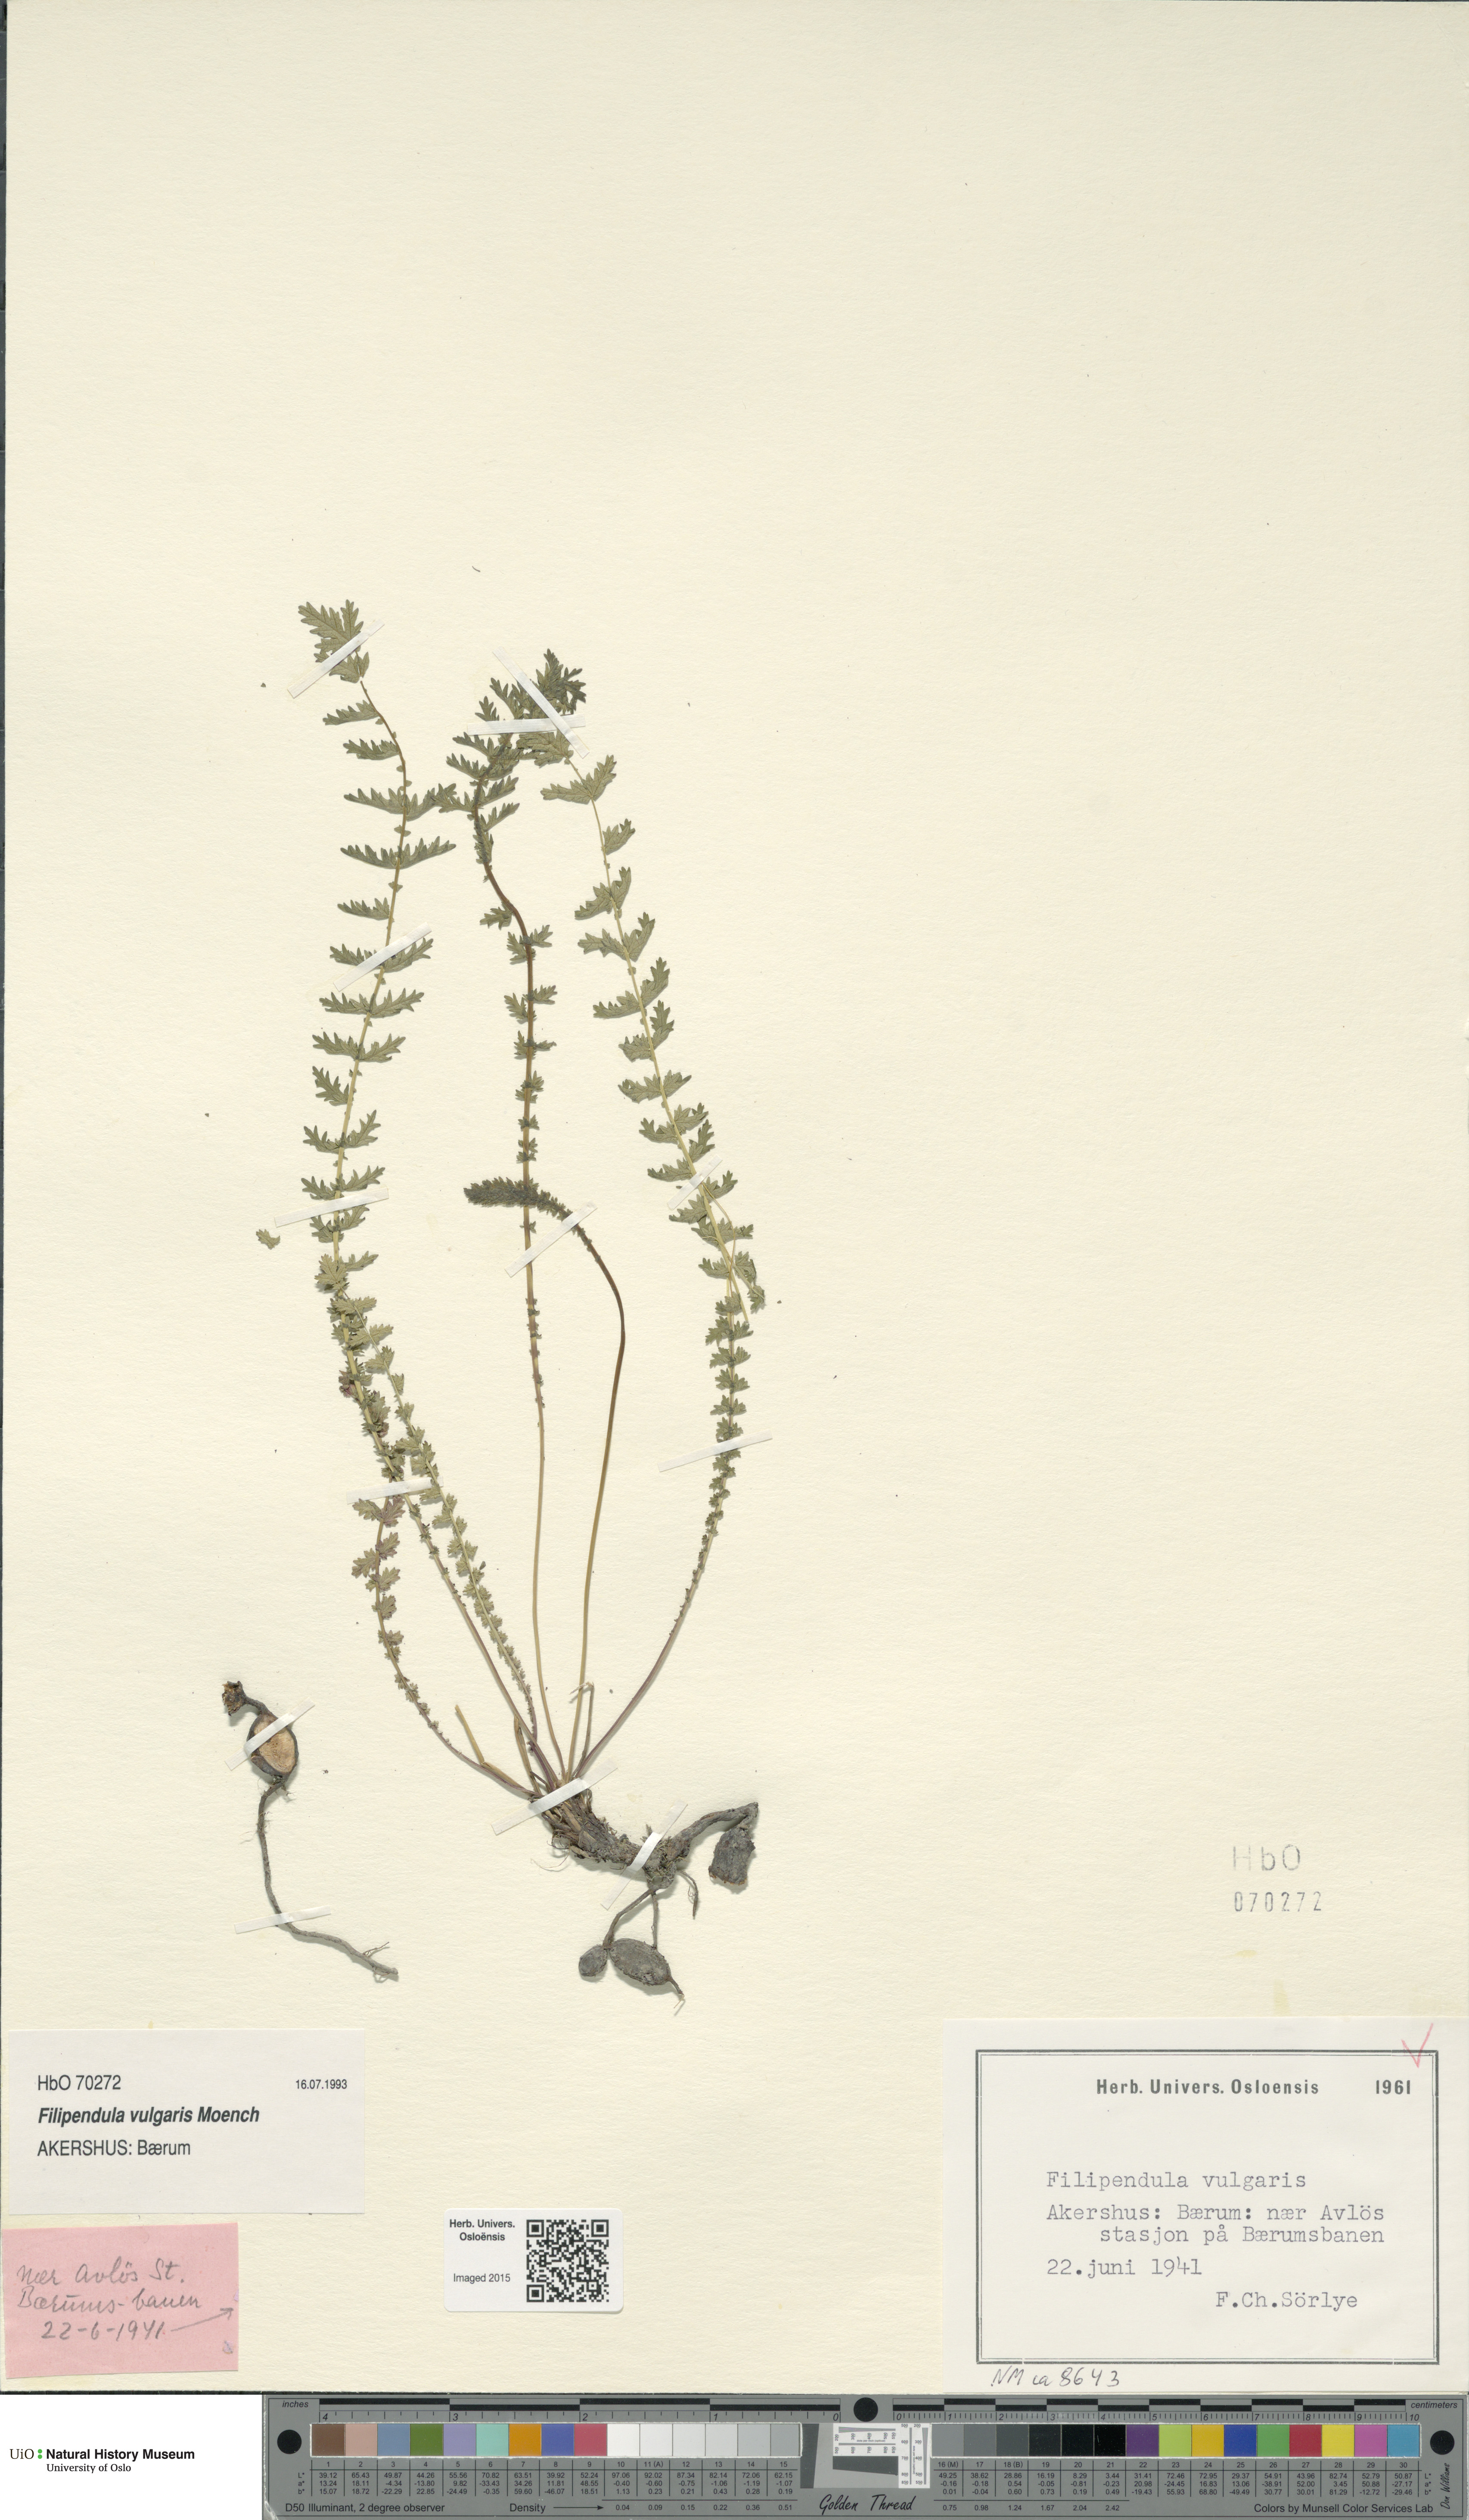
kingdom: Plantae
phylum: Tracheophyta
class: Magnoliopsida
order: Rosales
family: Rosaceae
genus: Filipendula
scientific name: Filipendula vulgaris
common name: Dropwort
